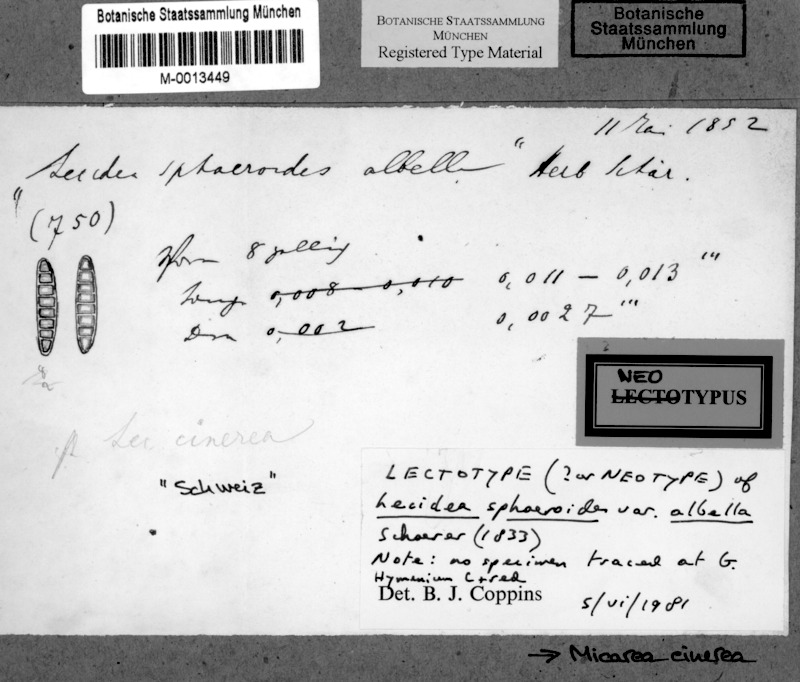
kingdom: Fungi
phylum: Ascomycota
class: Lecanoromycetes
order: Lecanorales
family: Byssolomataceae
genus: Micarea
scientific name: Micarea cinerea
